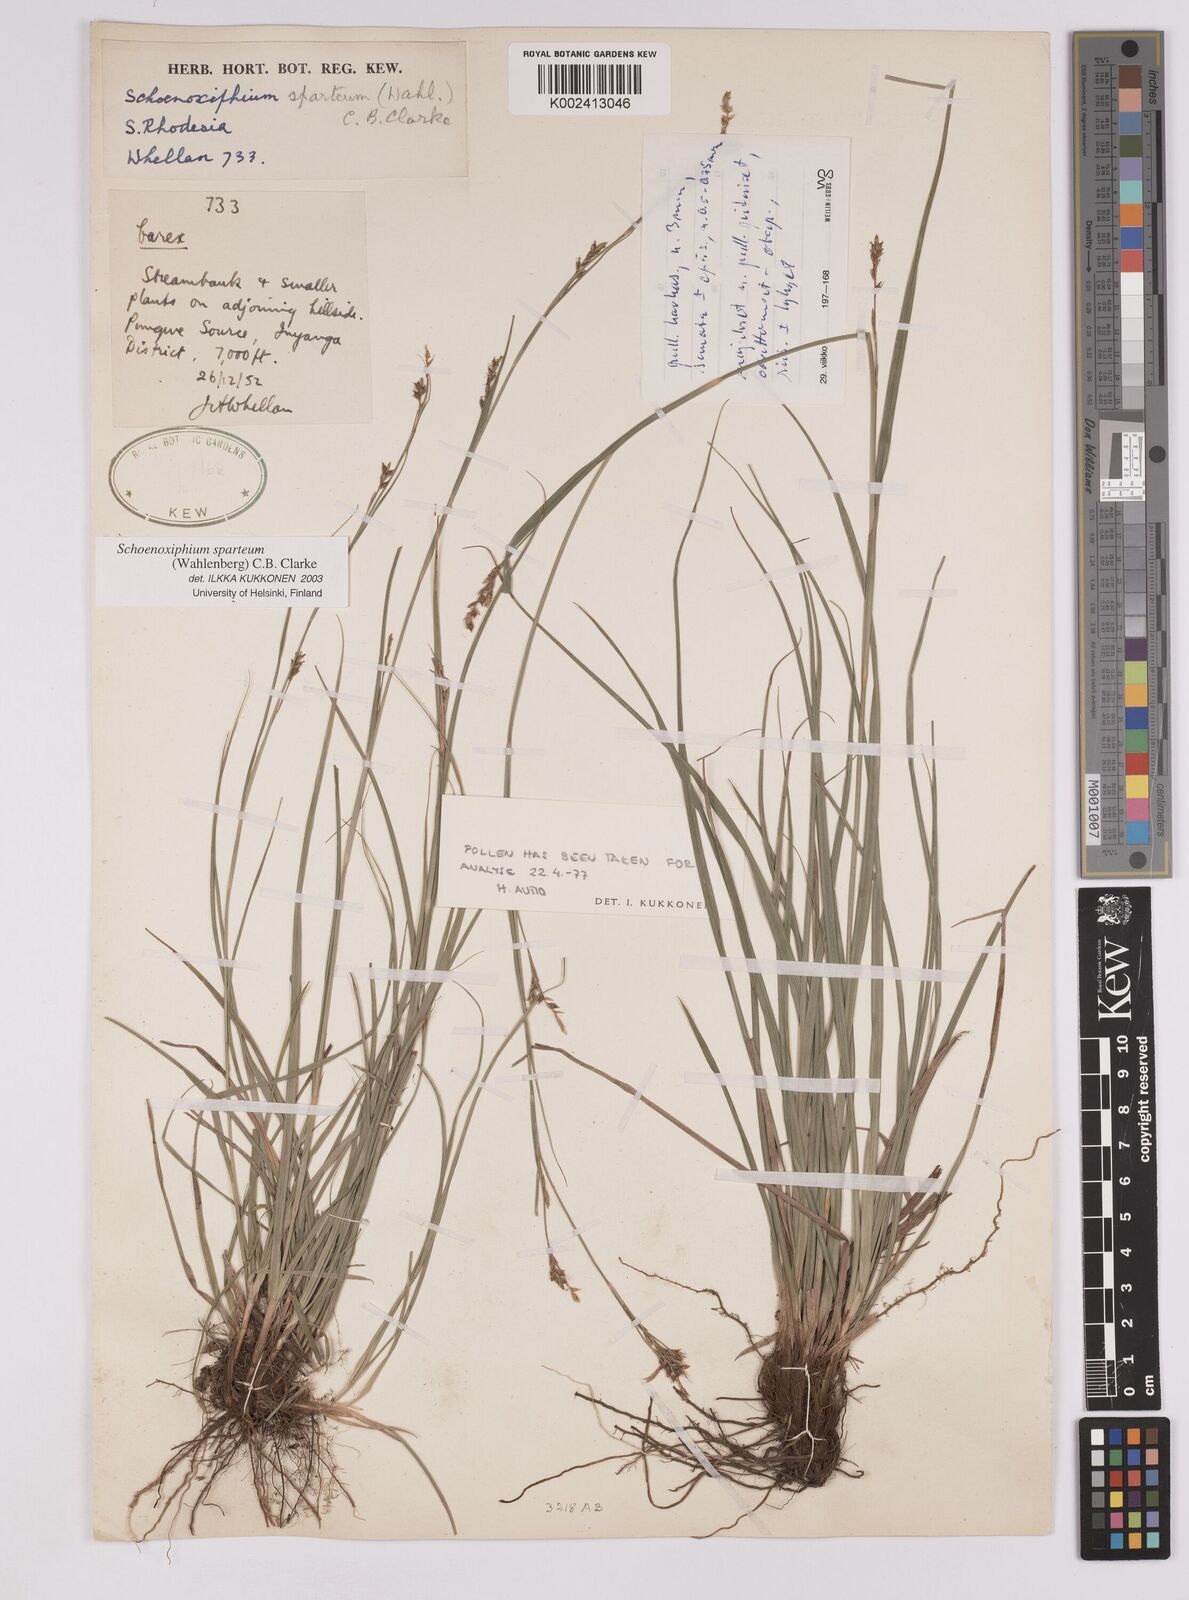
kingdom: Plantae
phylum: Tracheophyta
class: Liliopsida
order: Poales
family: Cyperaceae
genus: Carex
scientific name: Carex spartea
